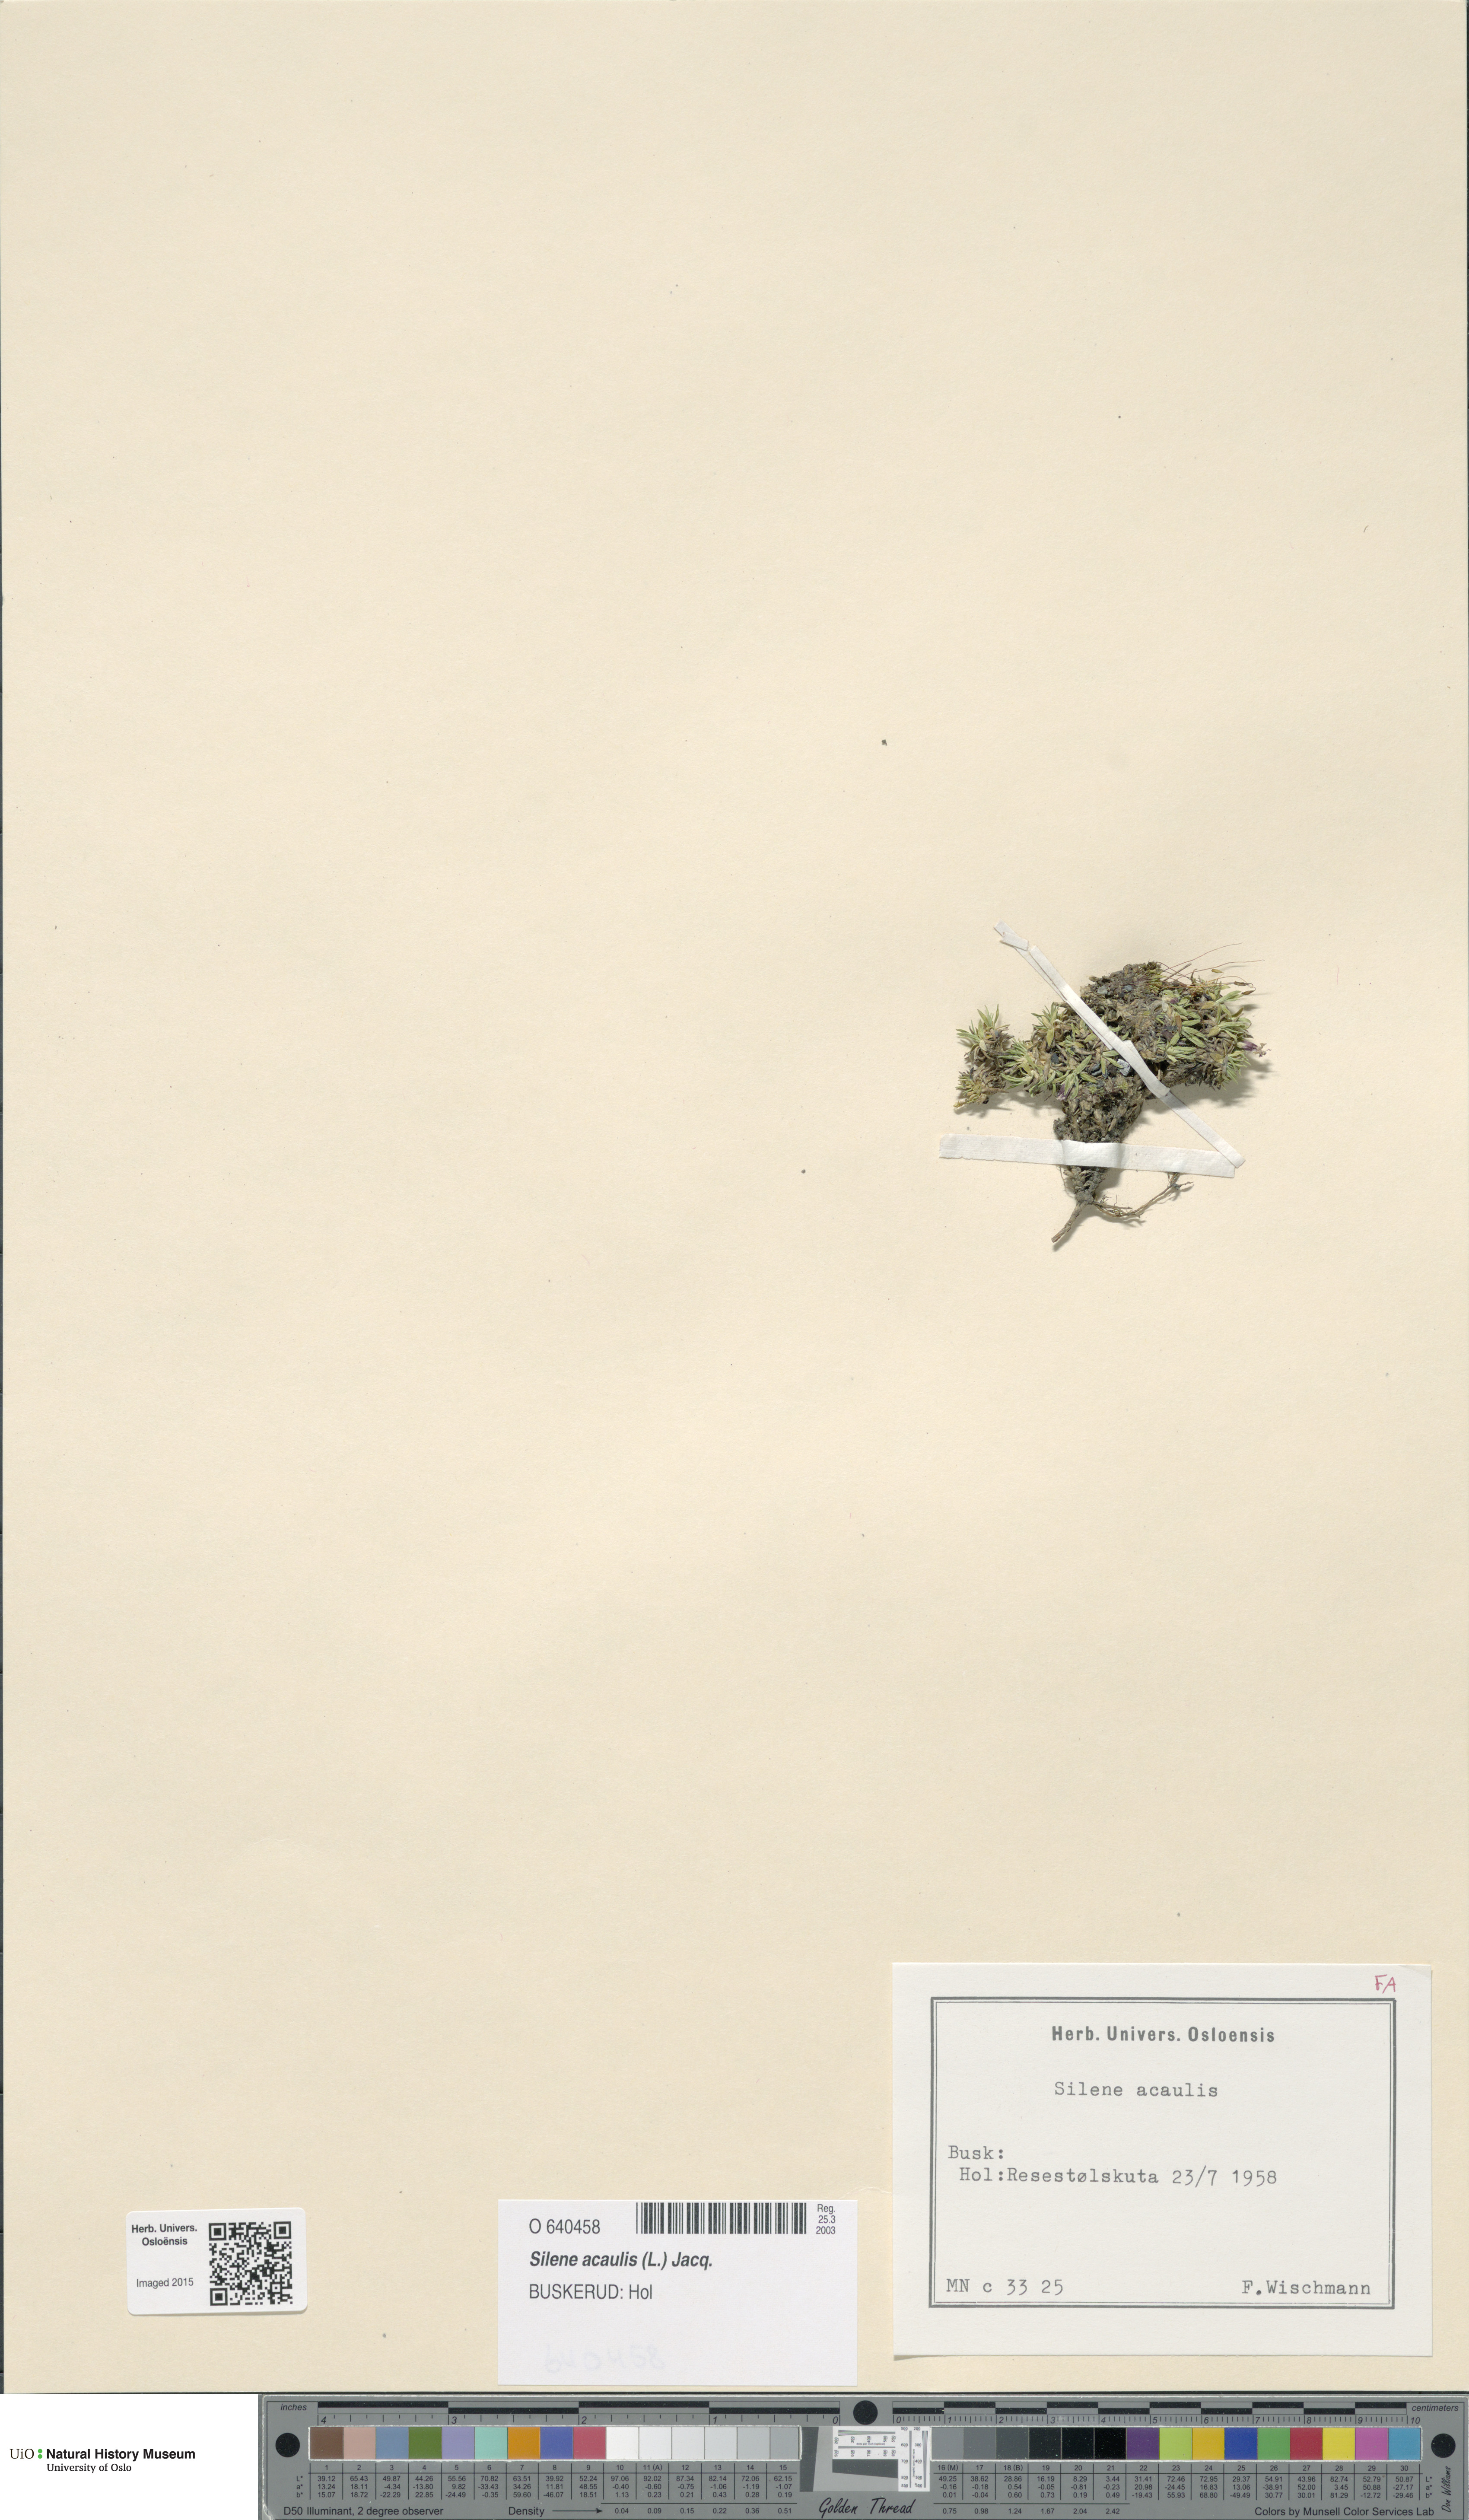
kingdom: Plantae
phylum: Tracheophyta
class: Magnoliopsida
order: Caryophyllales
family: Caryophyllaceae
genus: Silene
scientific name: Silene acaulis
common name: Moss campion
